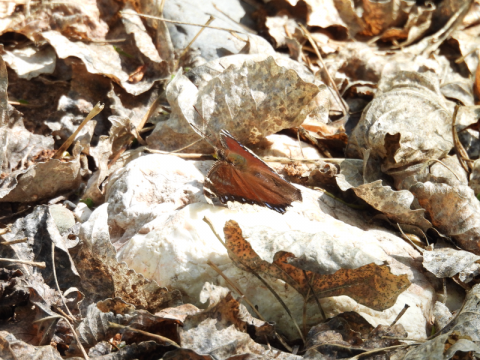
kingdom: Animalia
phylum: Arthropoda
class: Insecta
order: Lepidoptera
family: Nymphalidae
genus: Nymphalis
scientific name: Nymphalis antiopa
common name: Mourning Cloak
